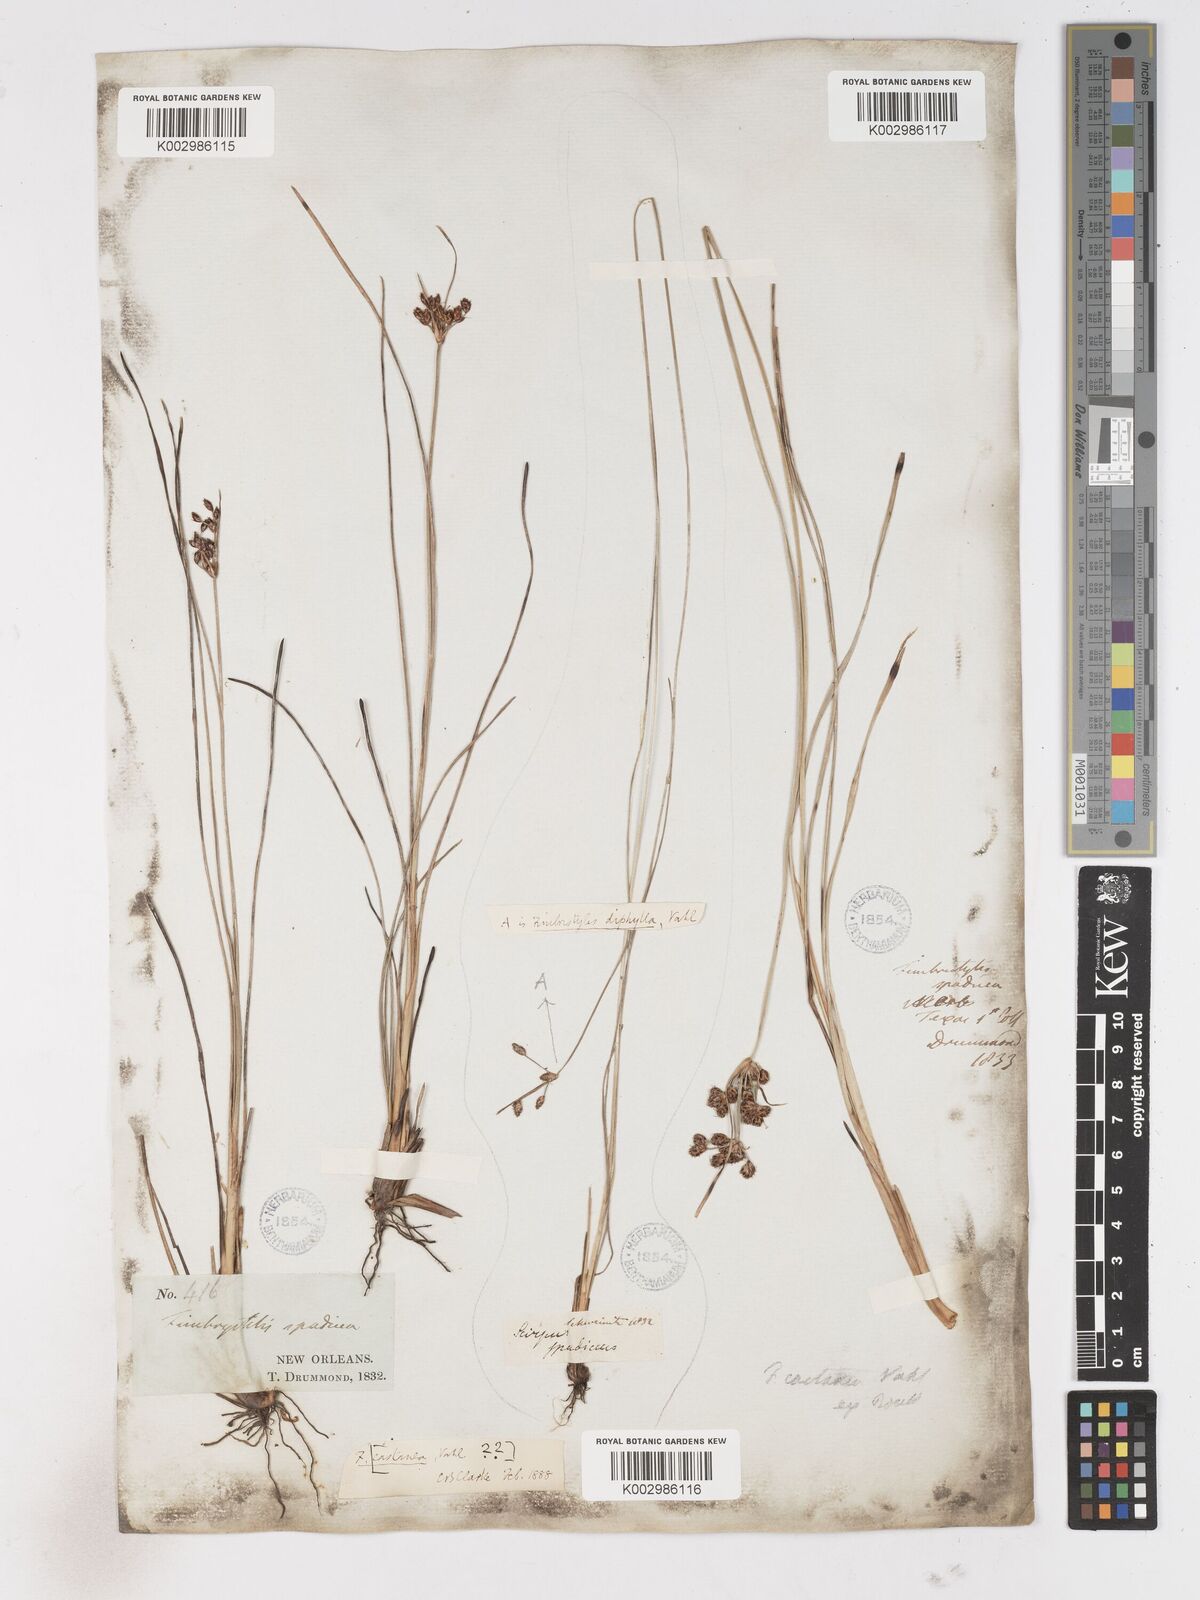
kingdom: Plantae
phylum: Tracheophyta
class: Liliopsida
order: Poales
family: Cyperaceae
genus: Fimbristylis
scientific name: Fimbristylis spadicea
